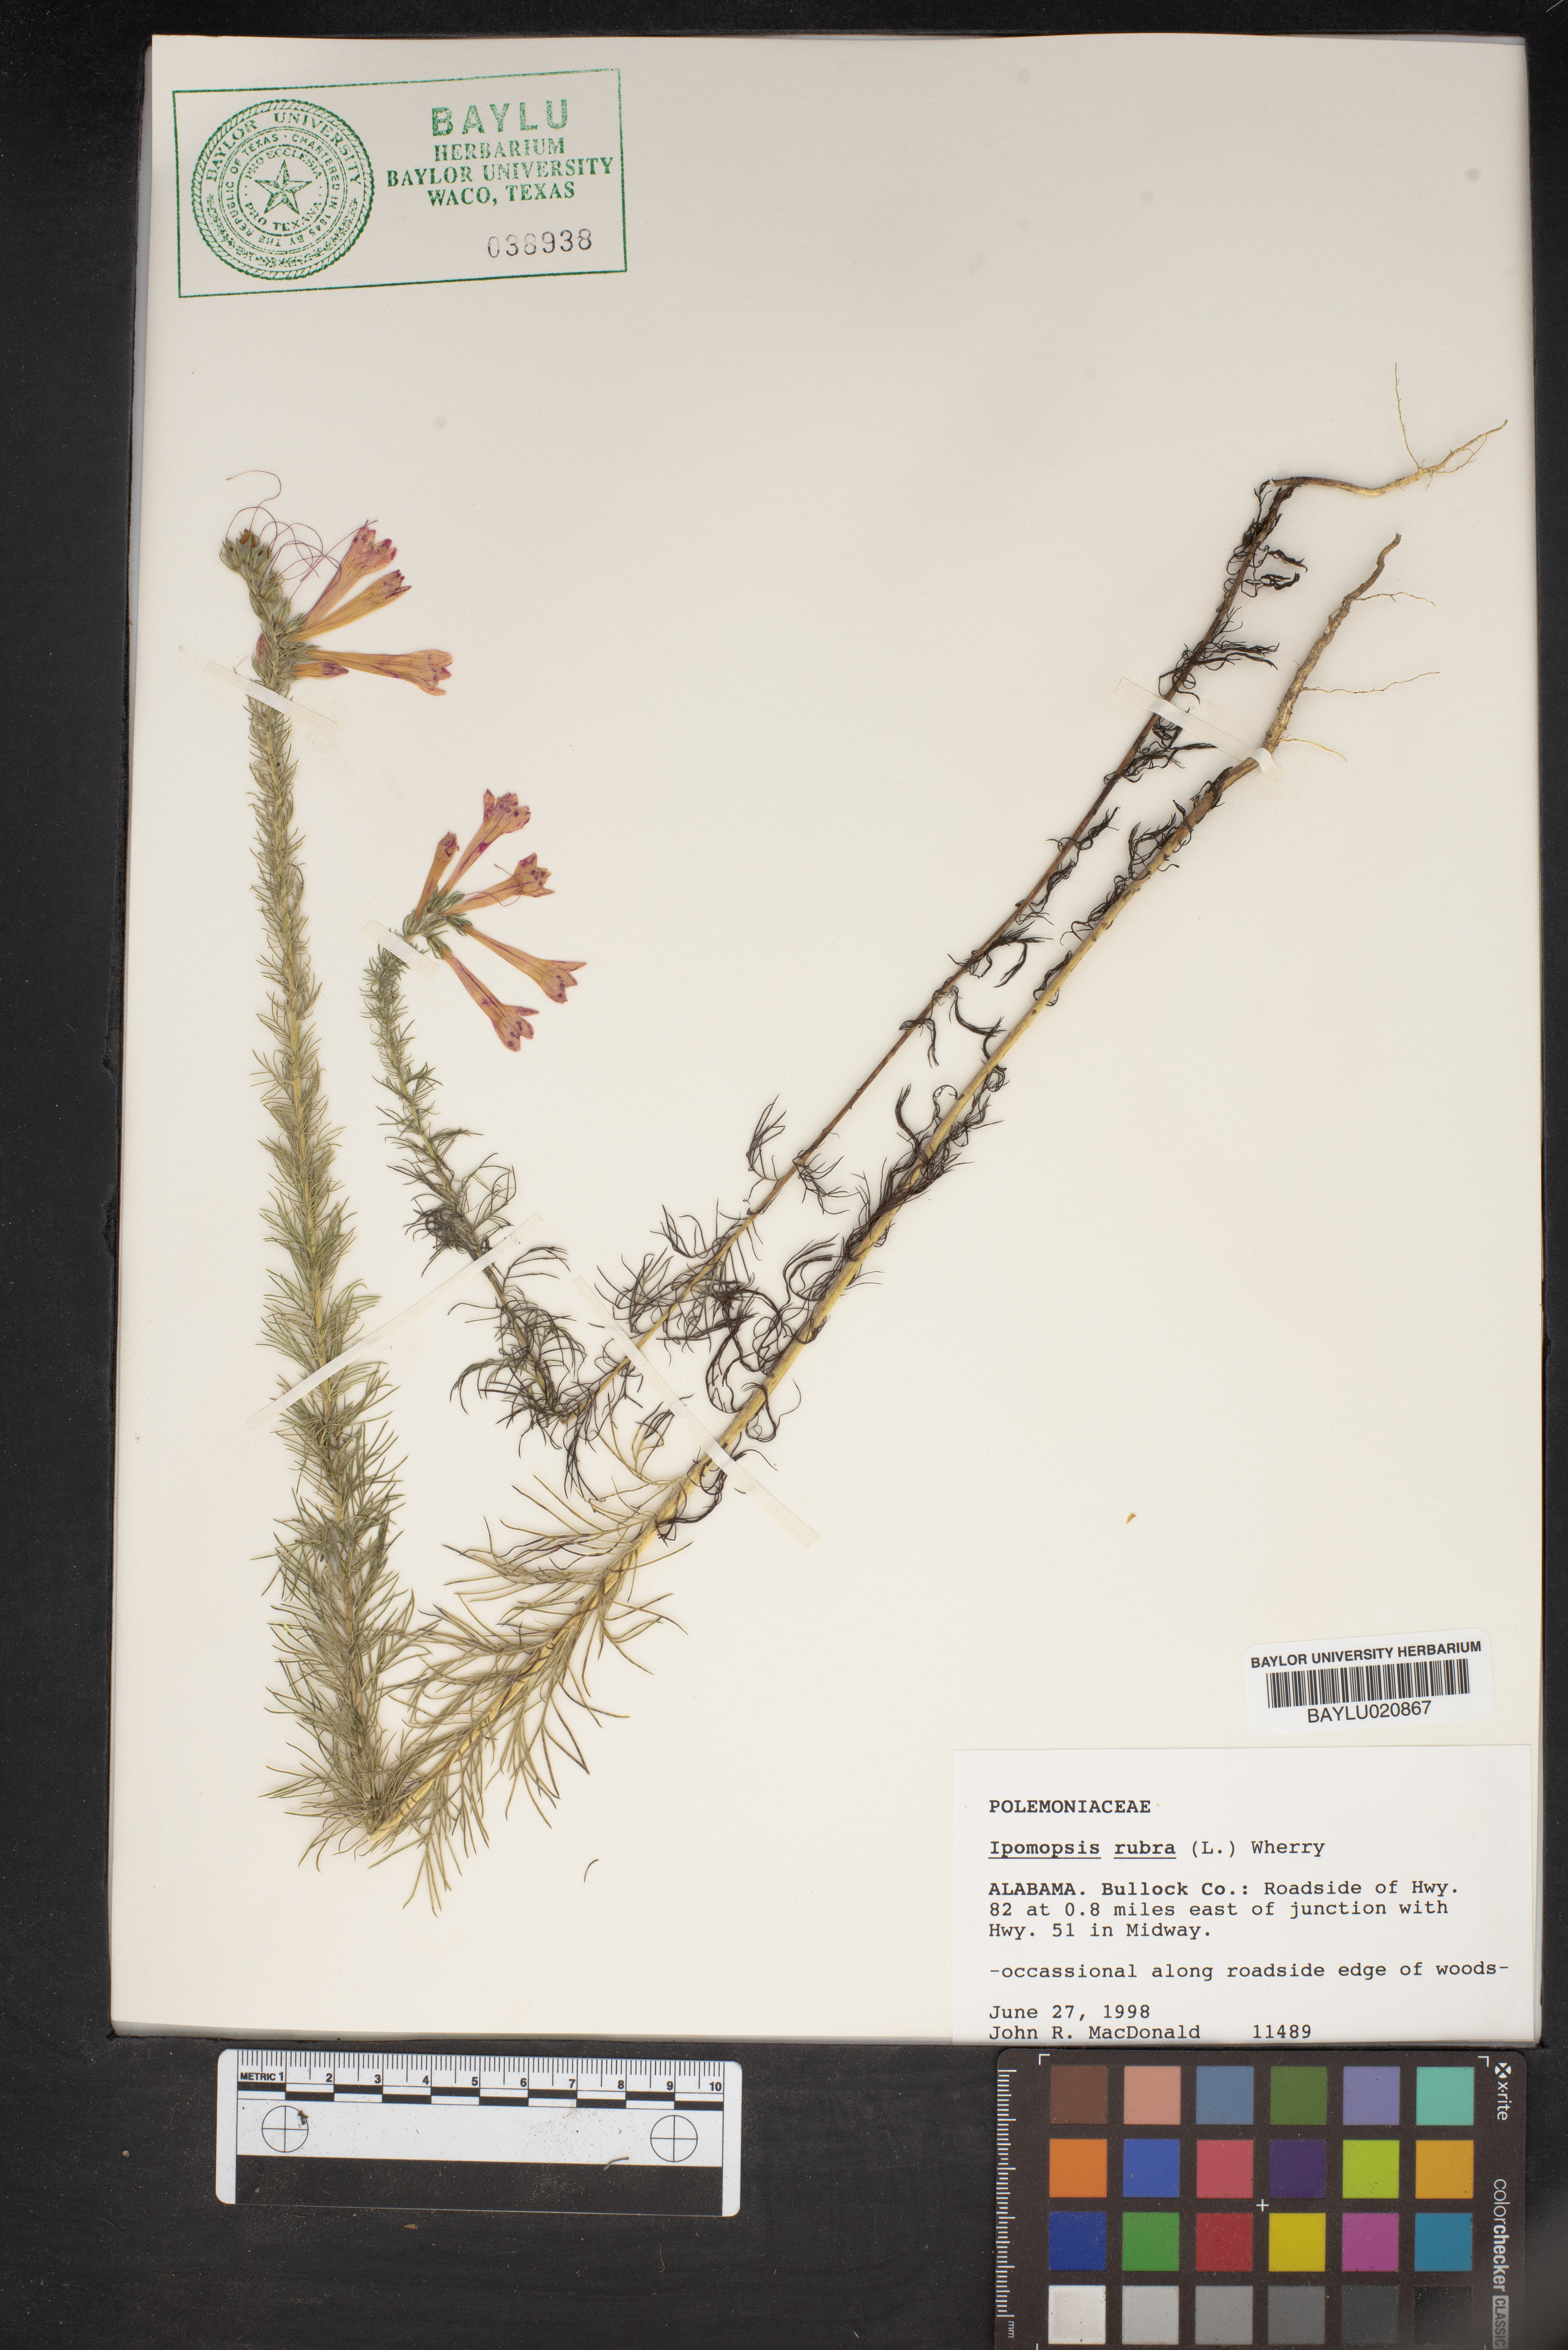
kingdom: Plantae
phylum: Tracheophyta
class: Magnoliopsida
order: Ericales
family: Polemoniaceae
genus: Ipomopsis
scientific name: Ipomopsis rubra
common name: Skyrocket
